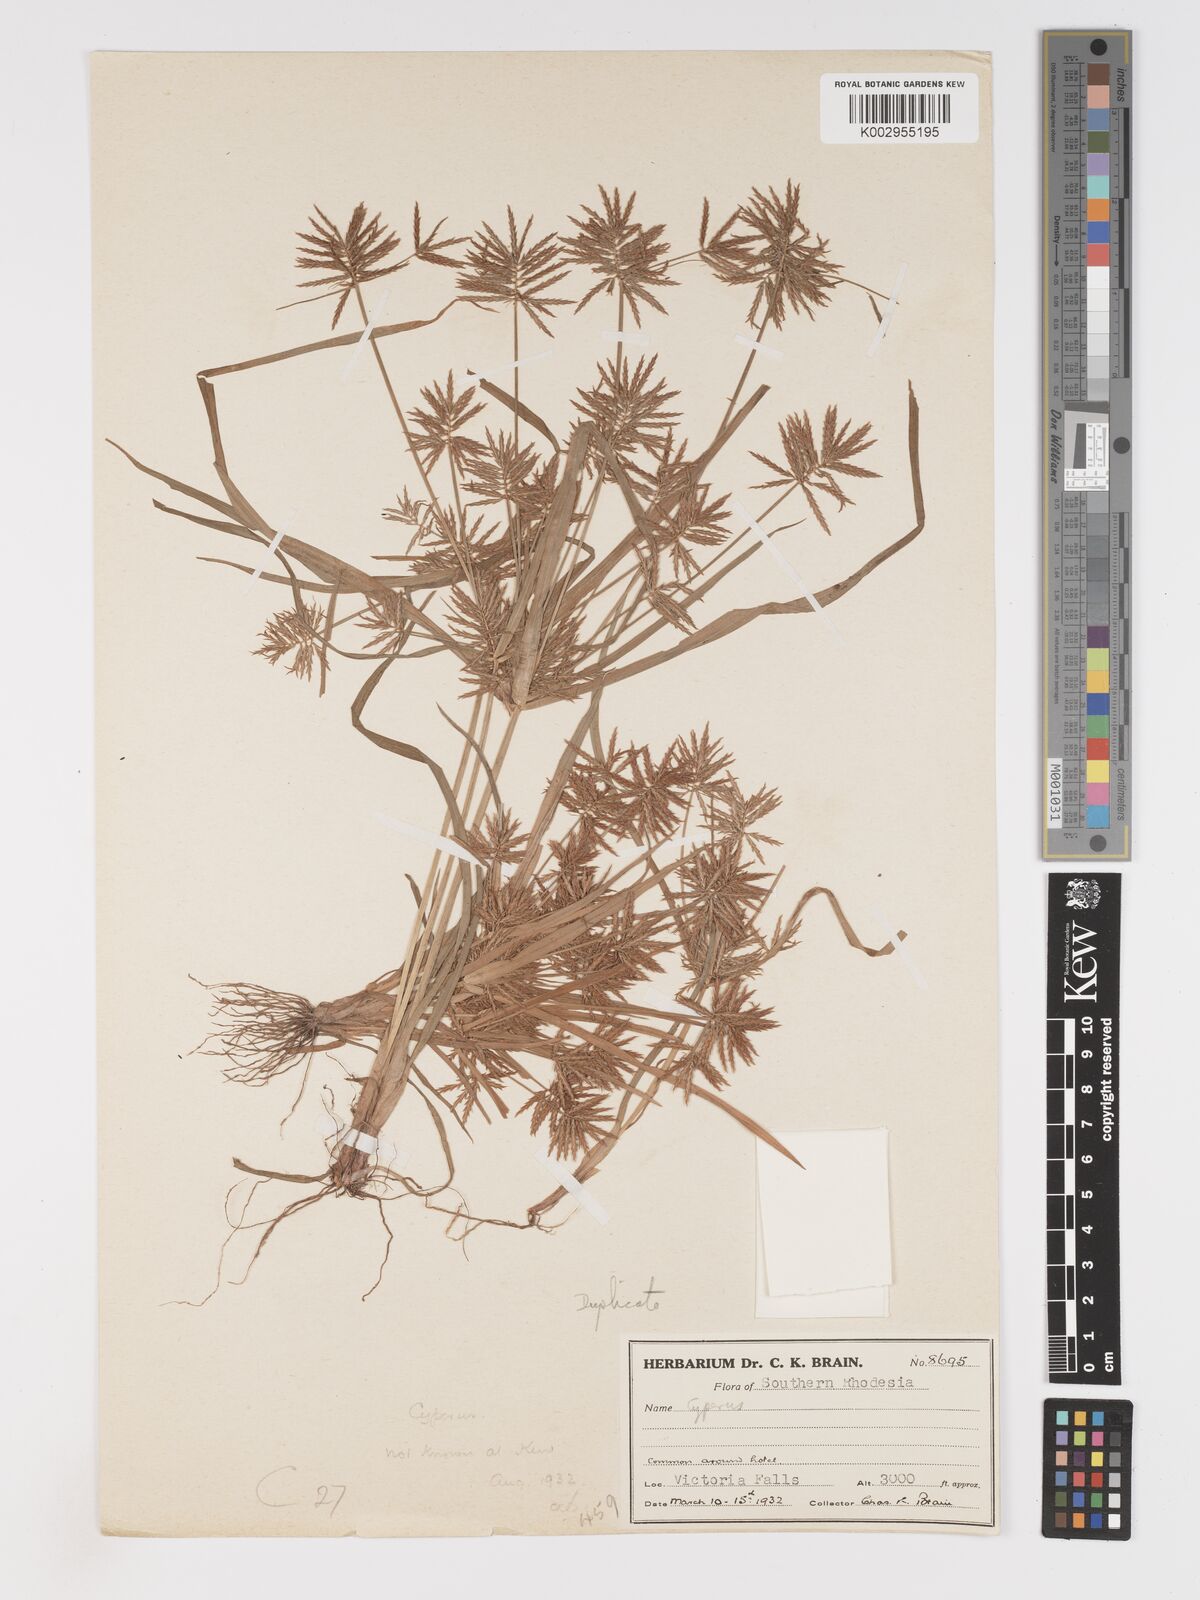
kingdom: Plantae
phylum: Tracheophyta
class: Liliopsida
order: Poales
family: Cyperaceae
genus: Cyperus
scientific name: Cyperus
